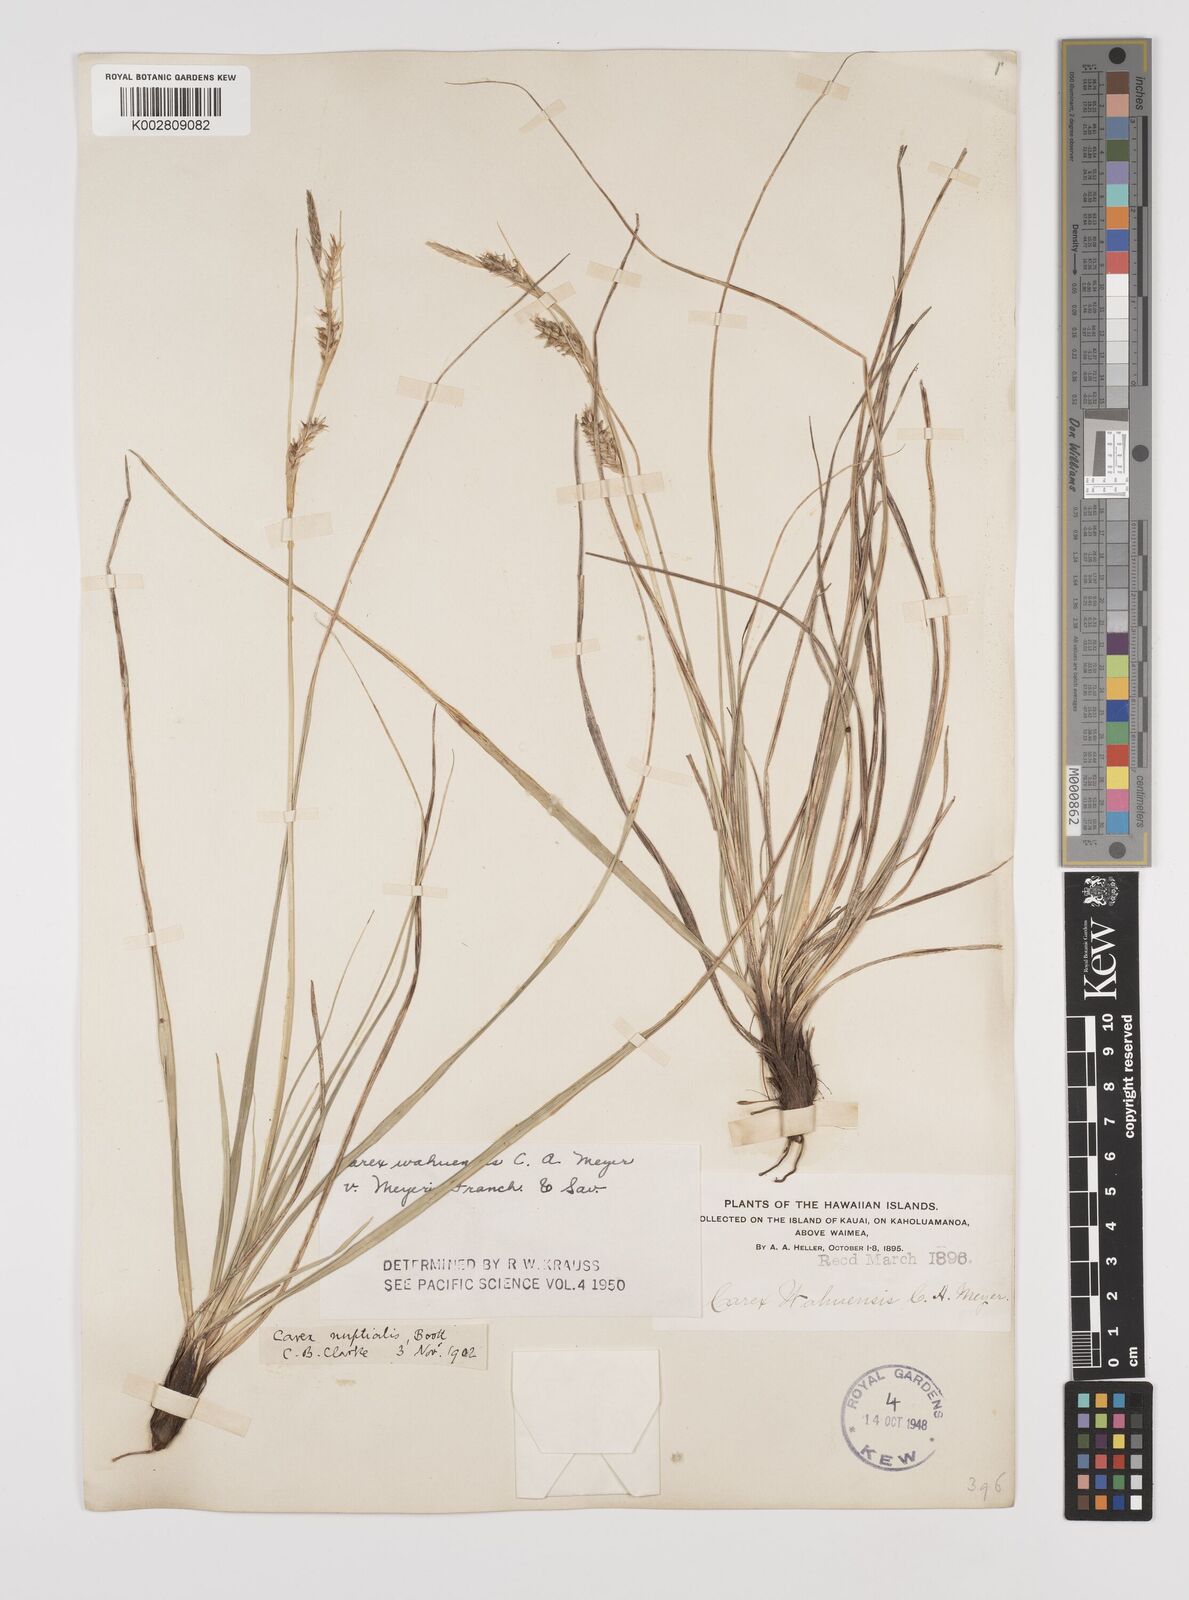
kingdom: Plantae
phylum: Tracheophyta
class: Liliopsida
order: Poales
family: Cyperaceae
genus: Carex
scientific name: Carex wahuensis
